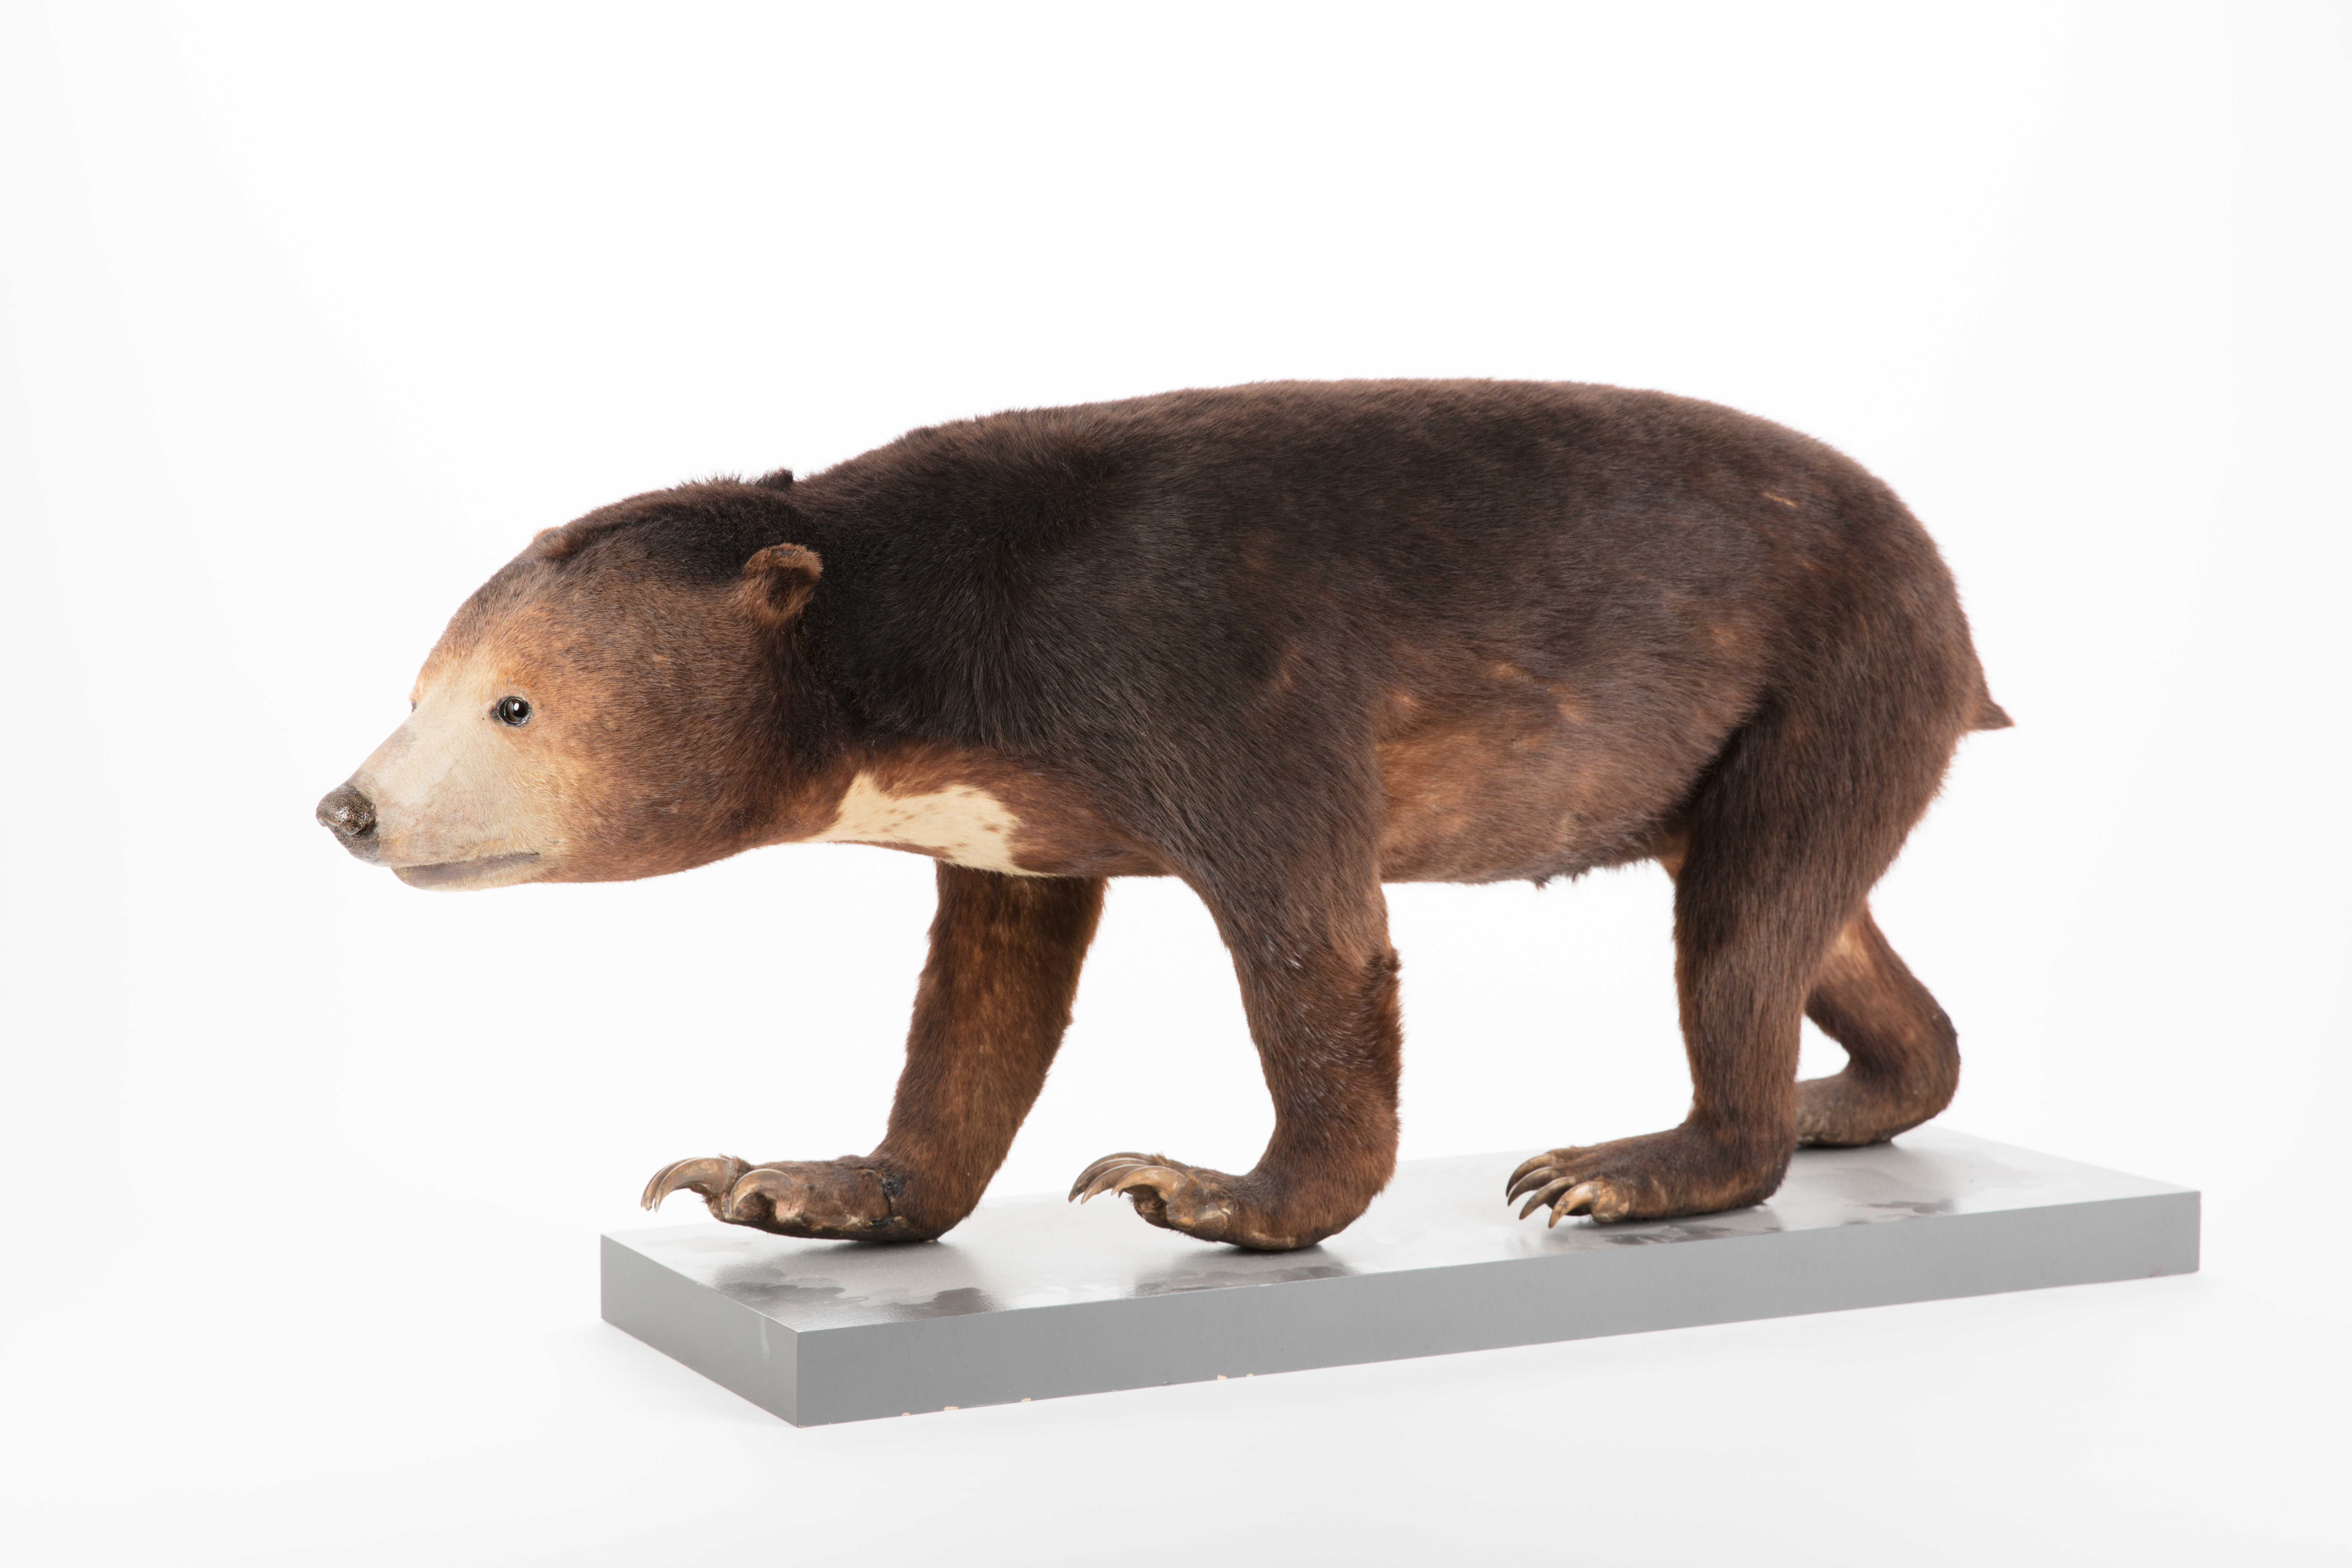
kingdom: Animalia
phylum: Chordata
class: Mammalia
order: Carnivora
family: Ursidae
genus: Helarctos
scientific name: Helarctos malayanus
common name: Sun bear
